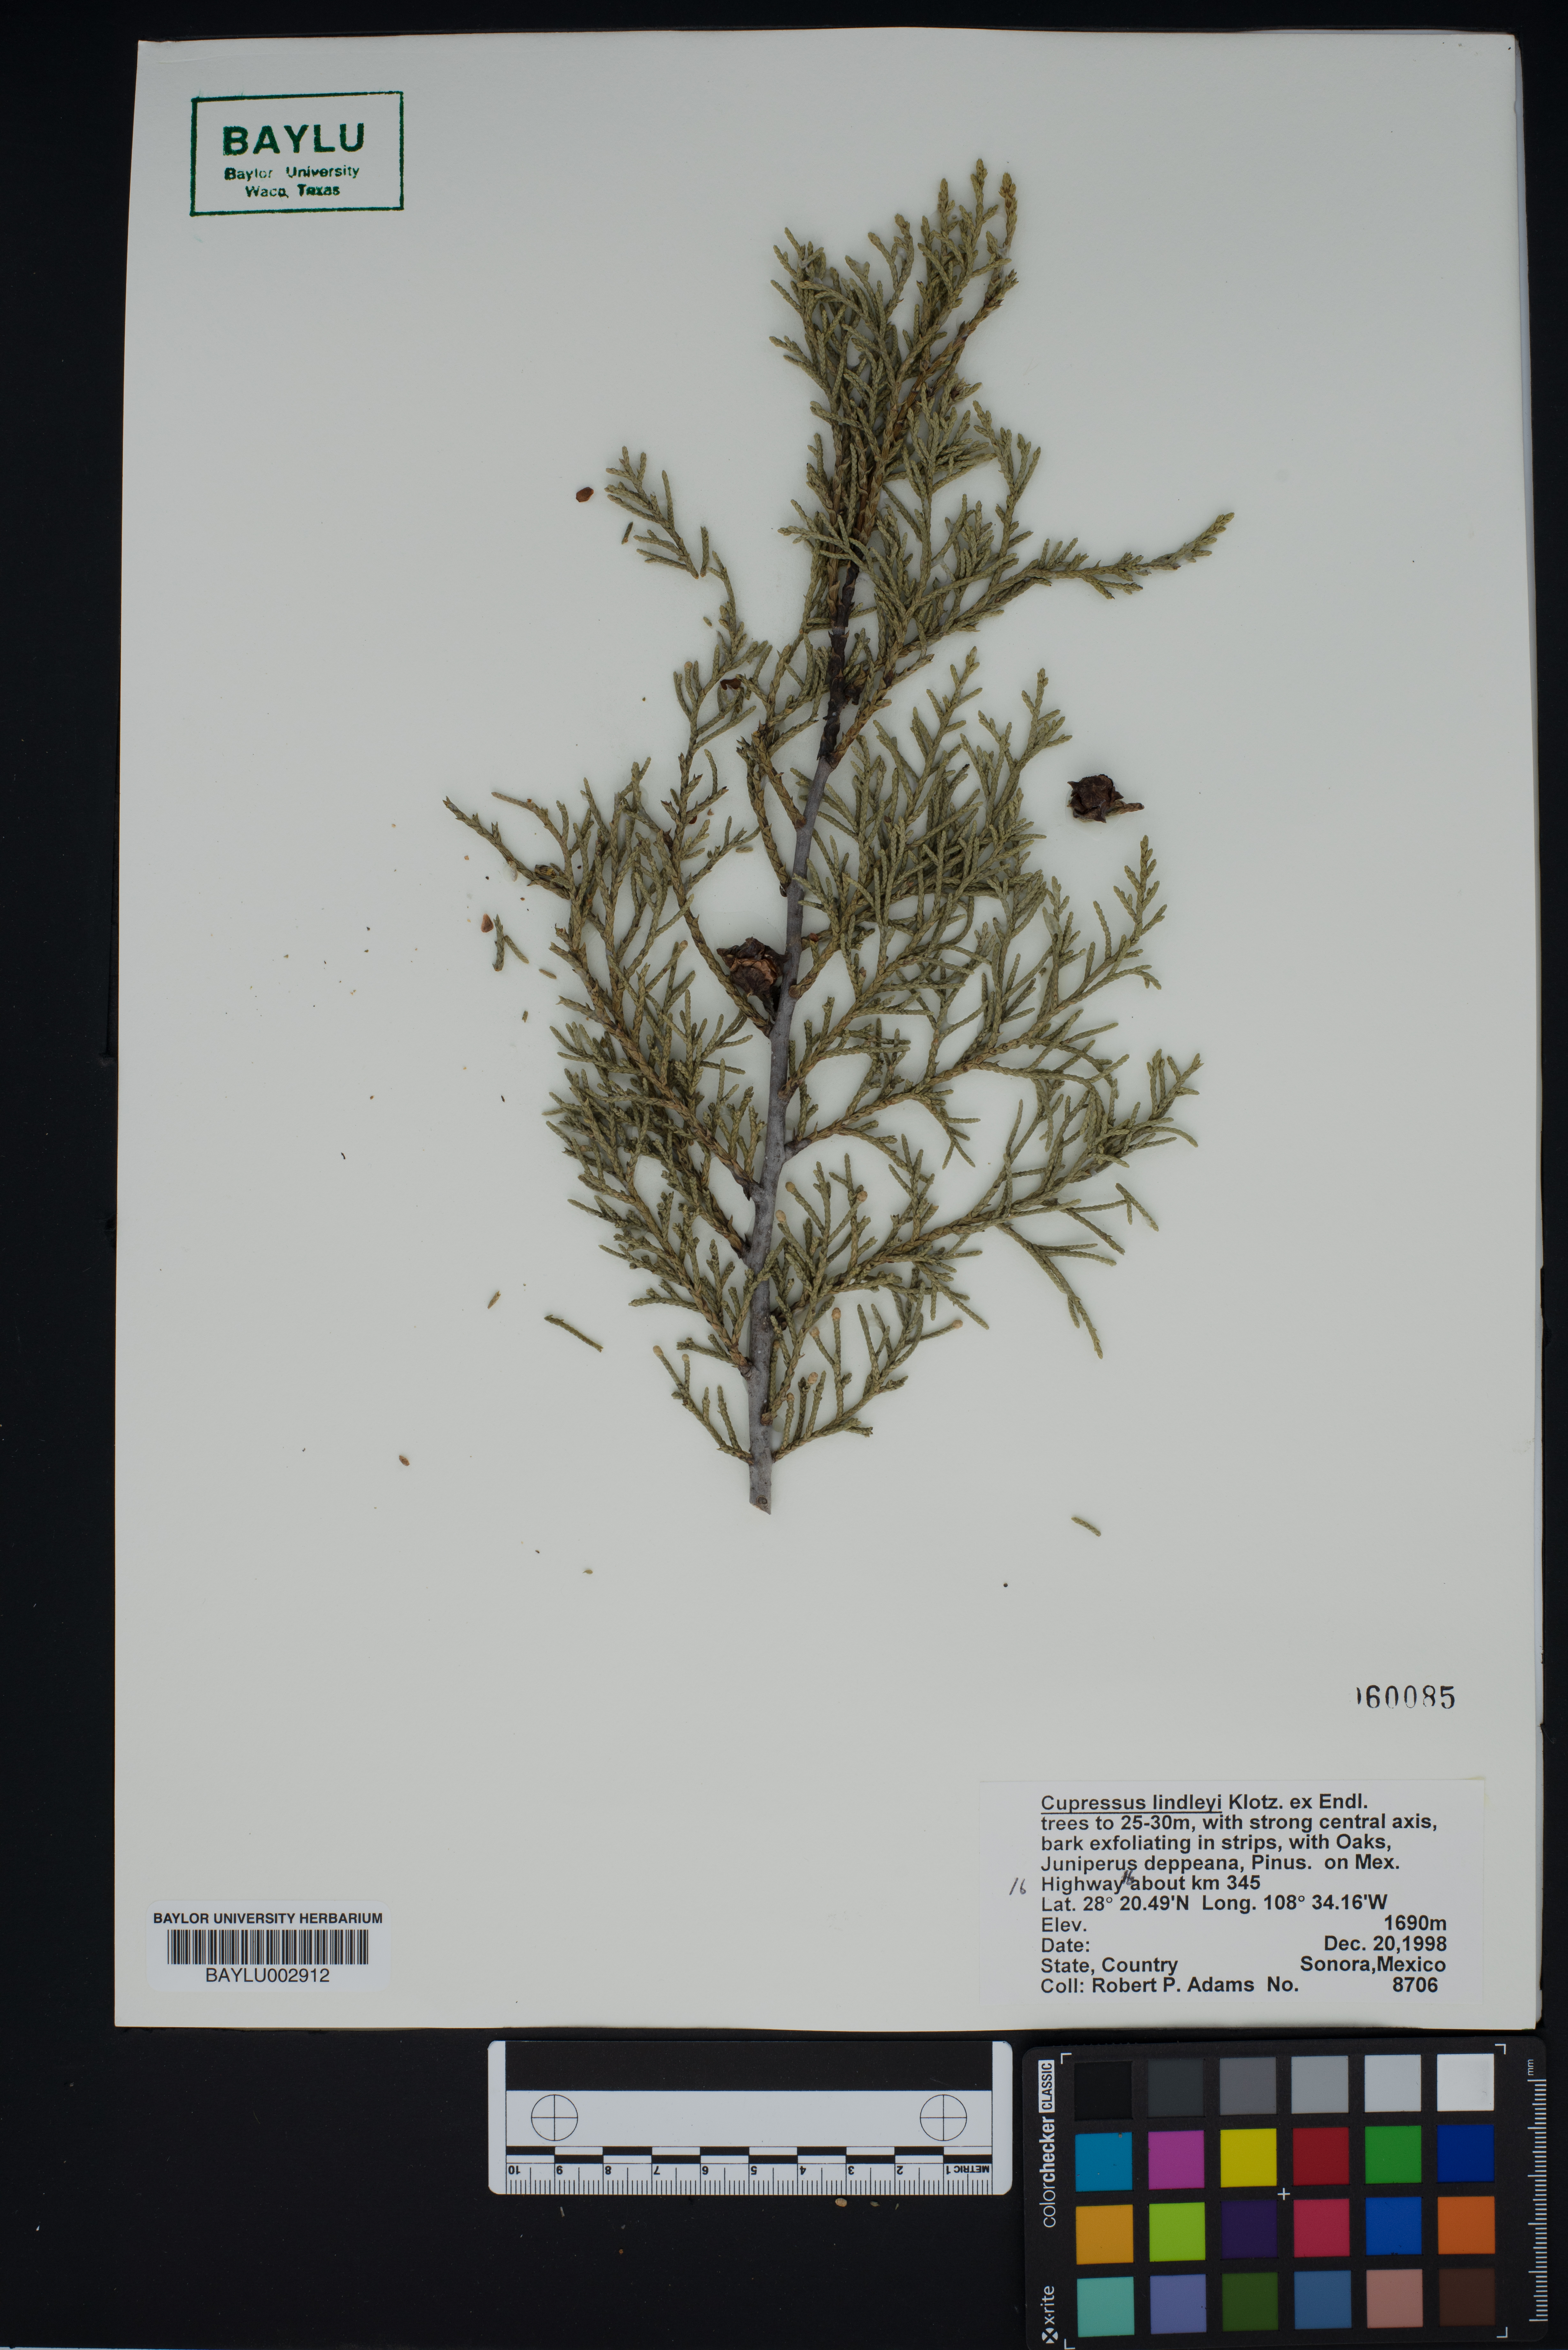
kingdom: Plantae
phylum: Tracheophyta
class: Pinopsida
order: Pinales
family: Cupressaceae
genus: Cupressus
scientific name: Cupressus lusitanica
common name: Mexican cypress
